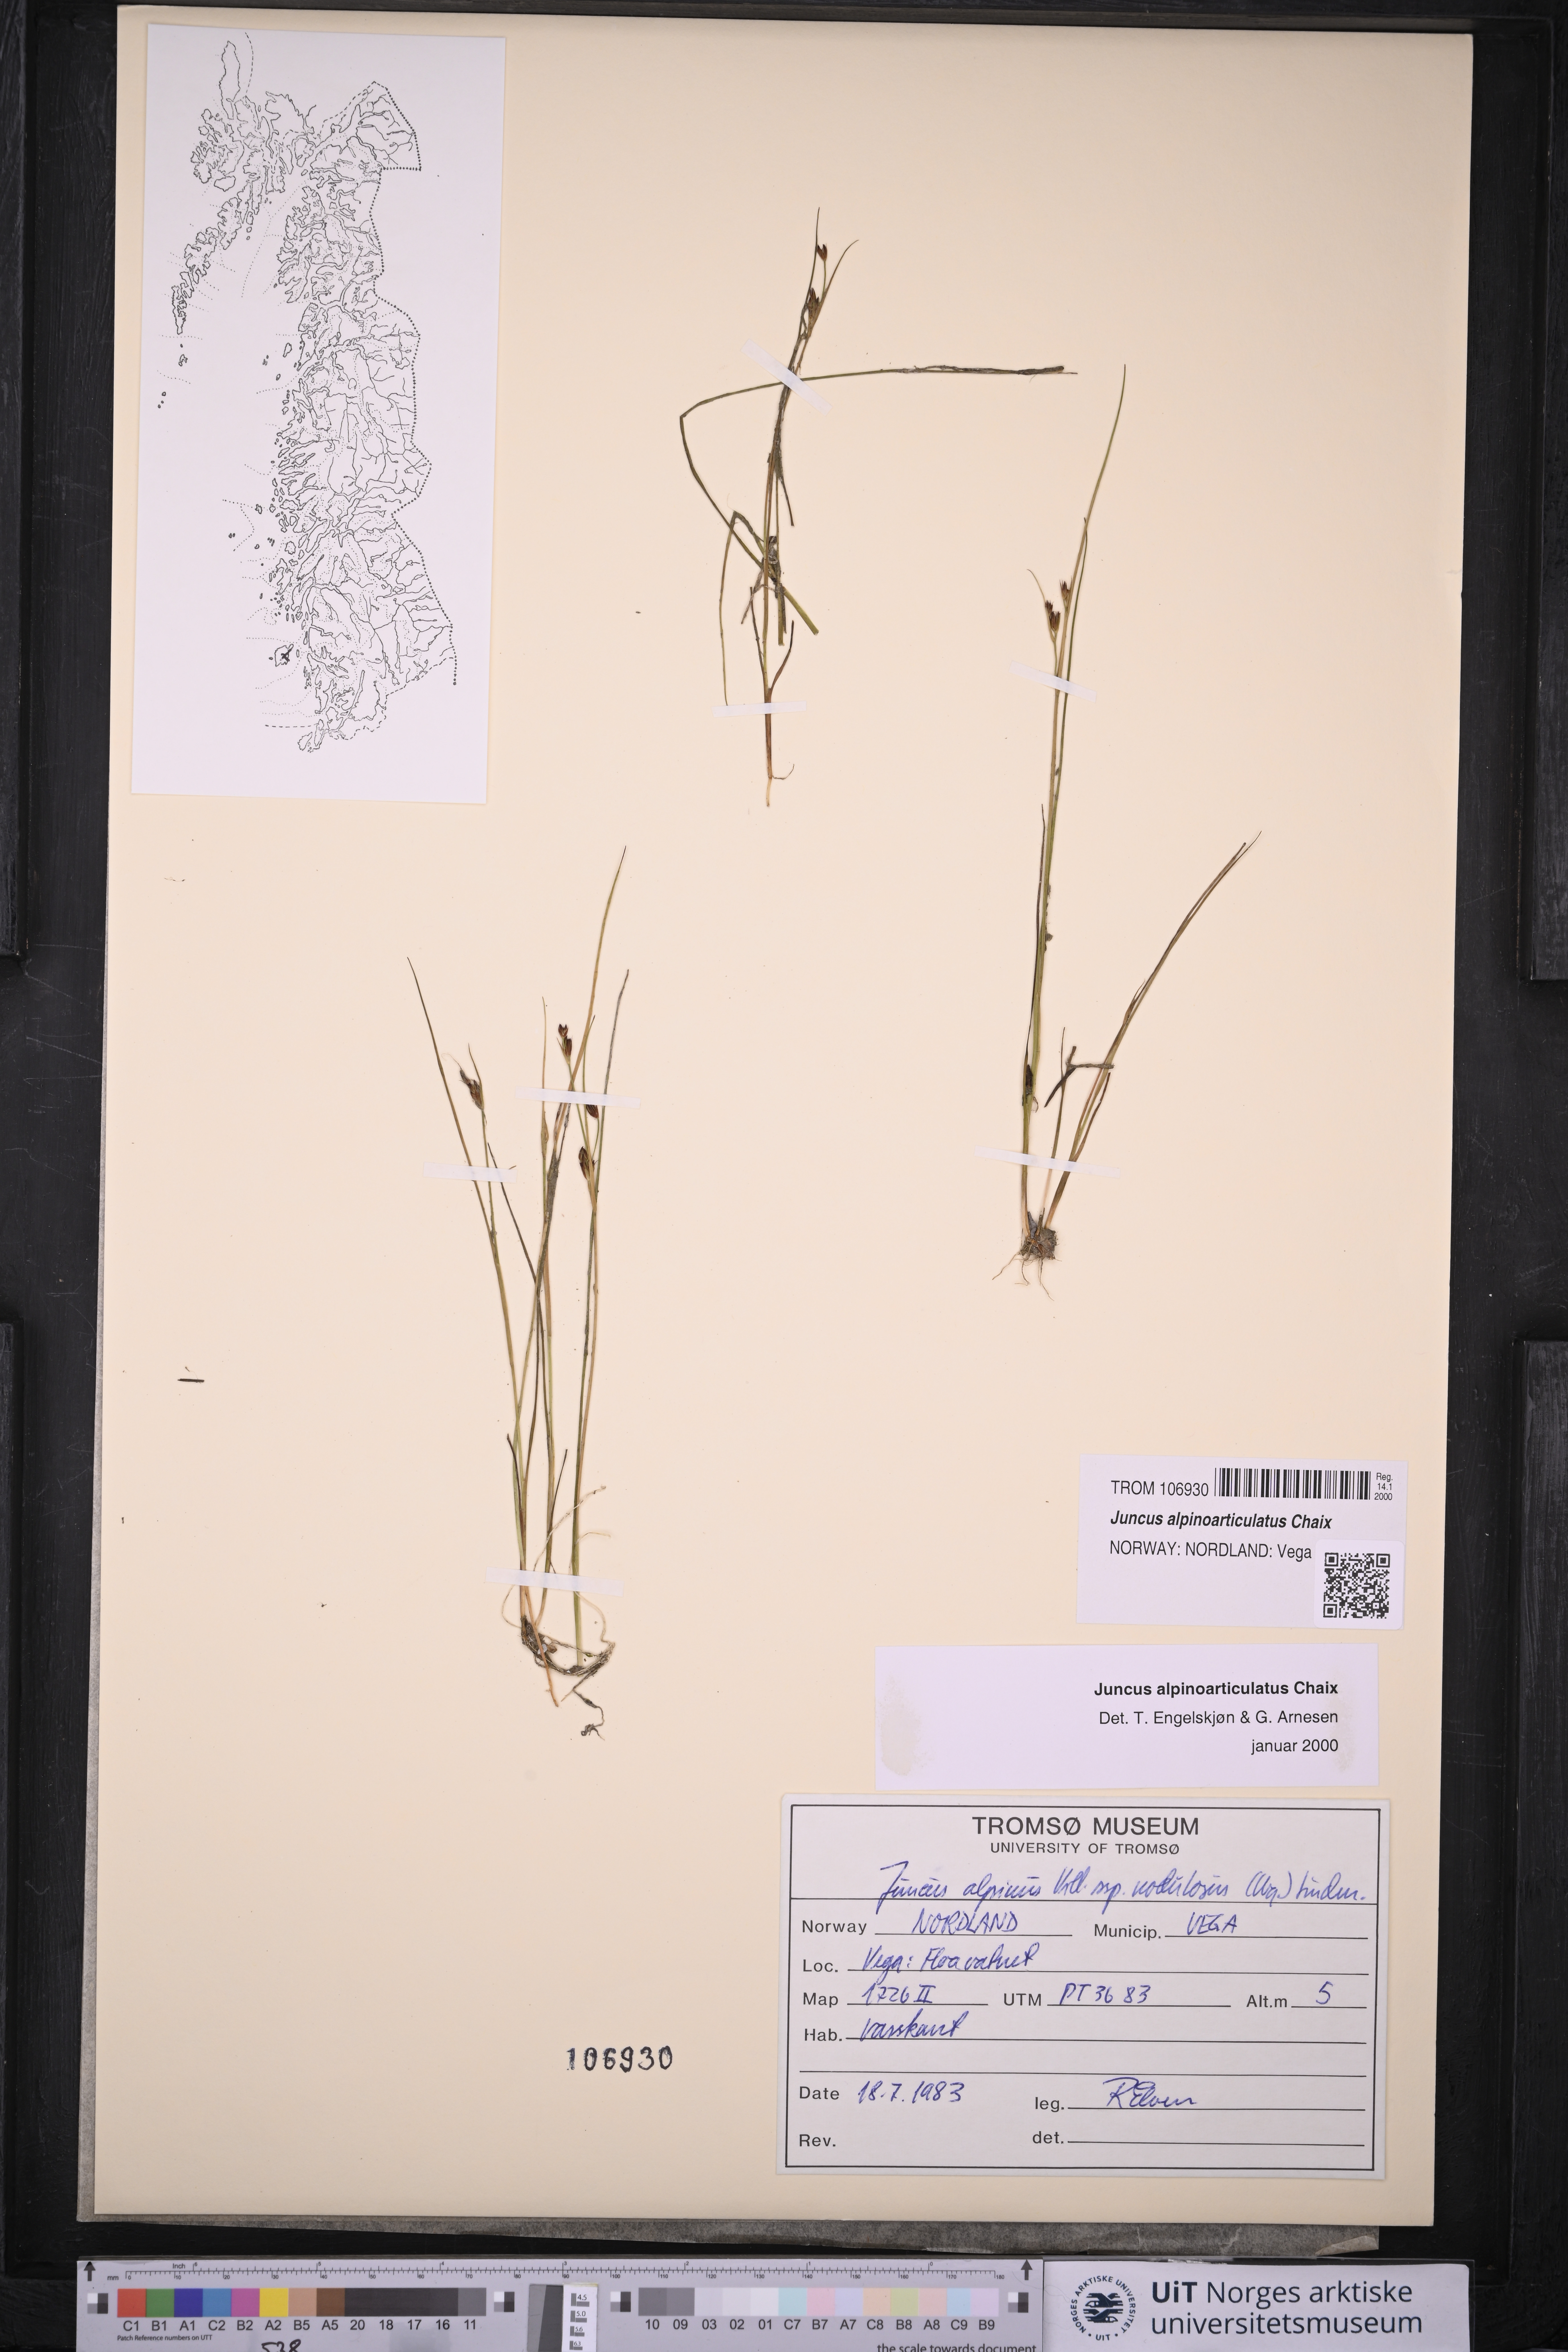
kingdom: Plantae
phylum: Tracheophyta
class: Liliopsida
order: Poales
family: Juncaceae
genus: Juncus
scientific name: Juncus alpinoarticulatus
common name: Alpine rush
